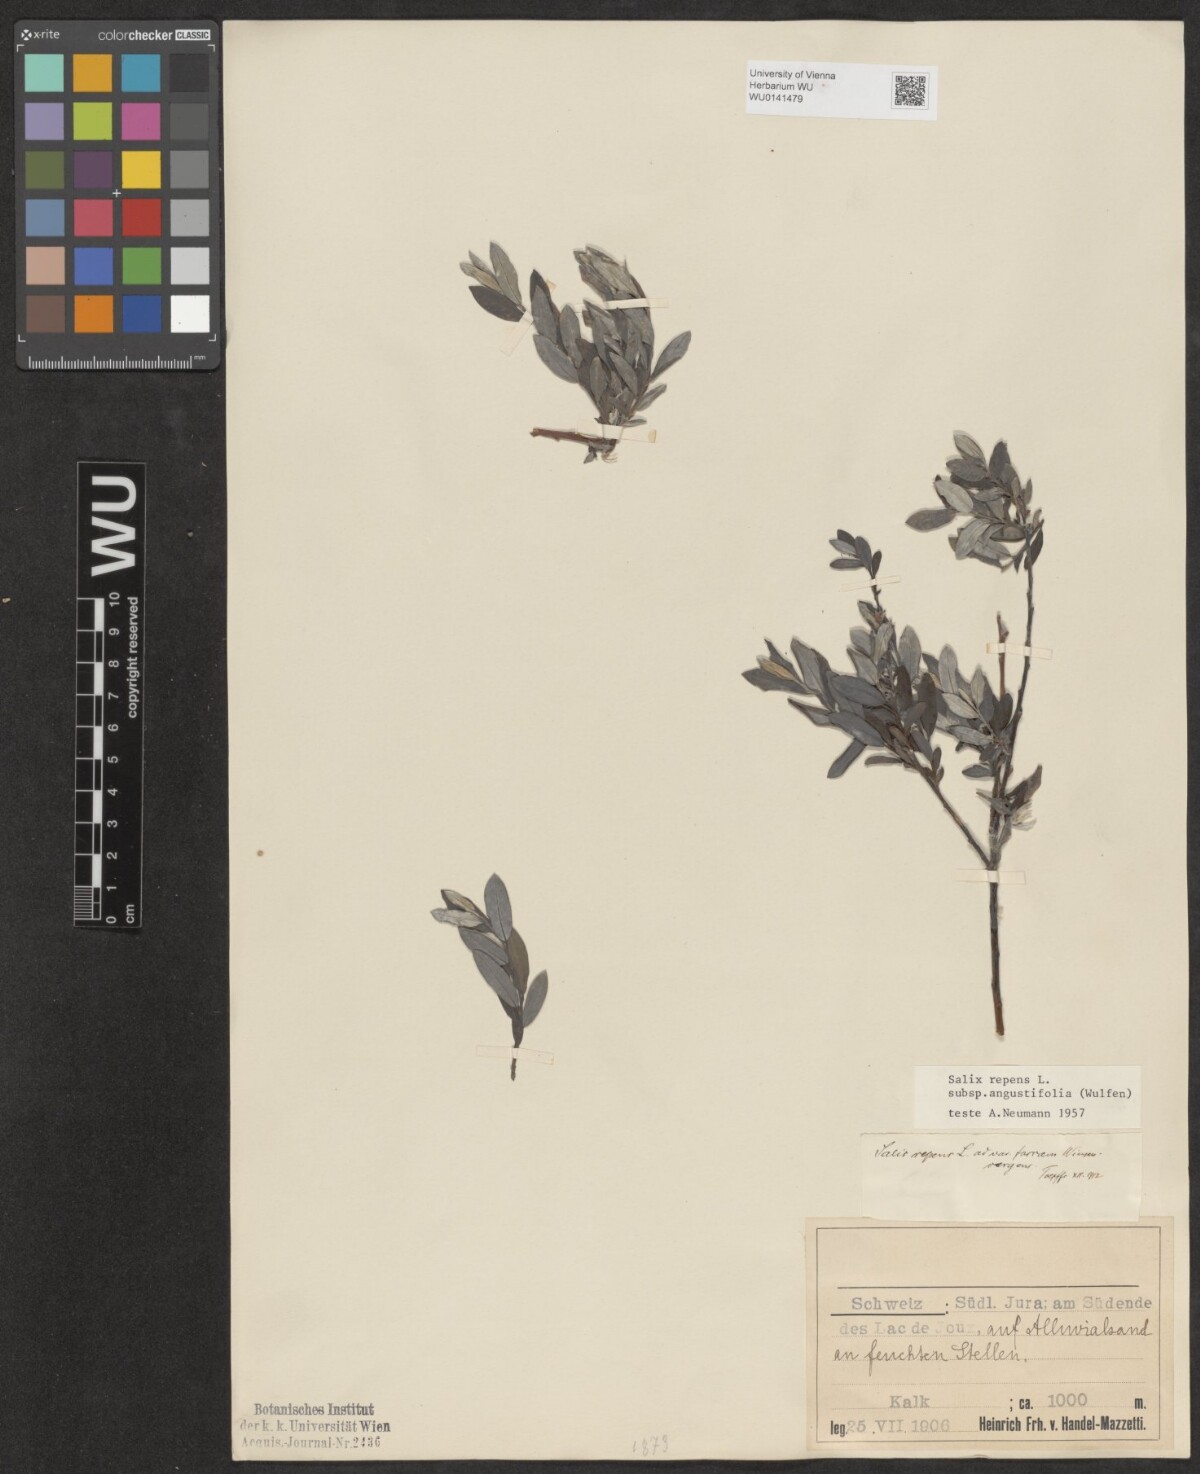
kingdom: Plantae
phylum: Tracheophyta
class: Magnoliopsida
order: Malpighiales
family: Salicaceae
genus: Salix
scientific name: Salix rosmarinifolia
